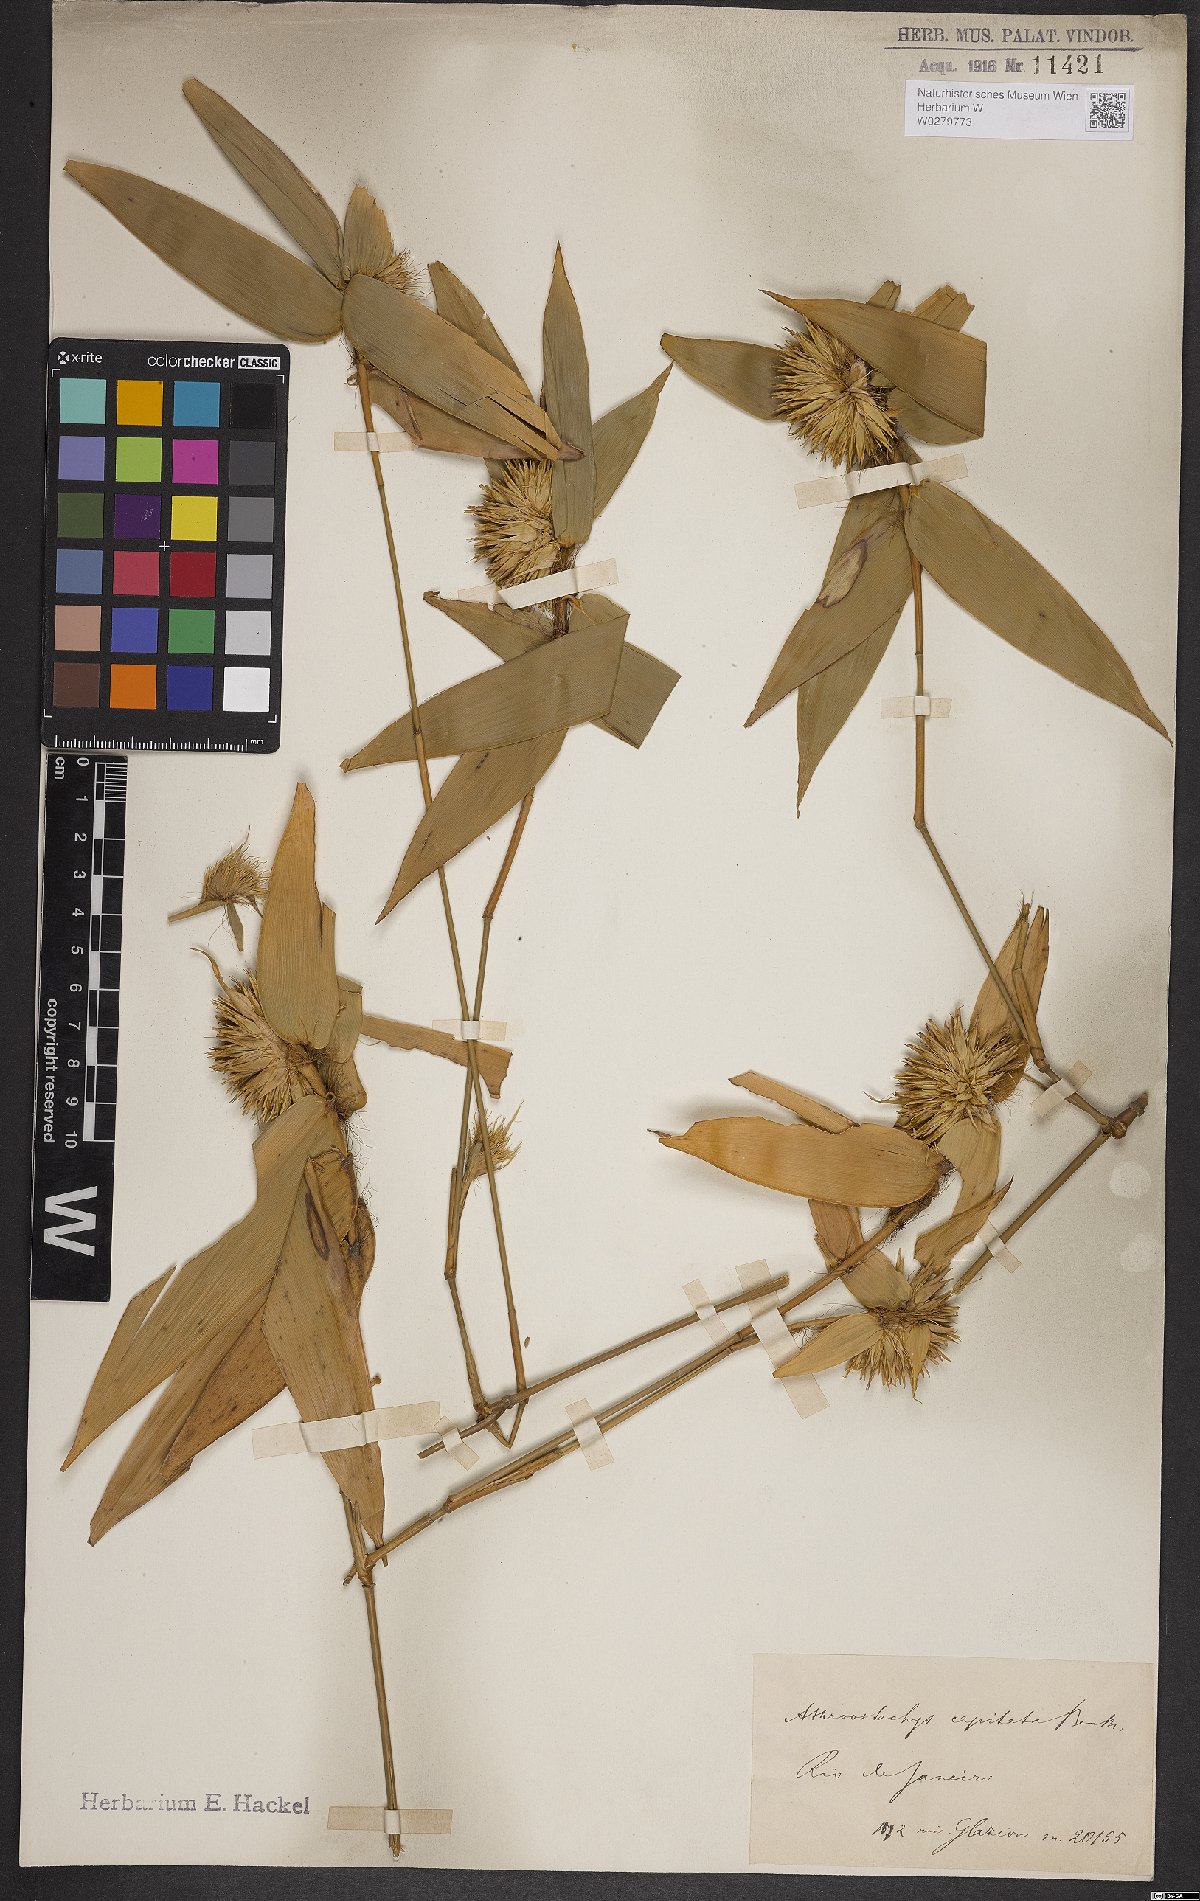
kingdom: Plantae
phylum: Tracheophyta
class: Liliopsida
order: Poales
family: Poaceae
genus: Athroostachys
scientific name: Athroostachys capitata
